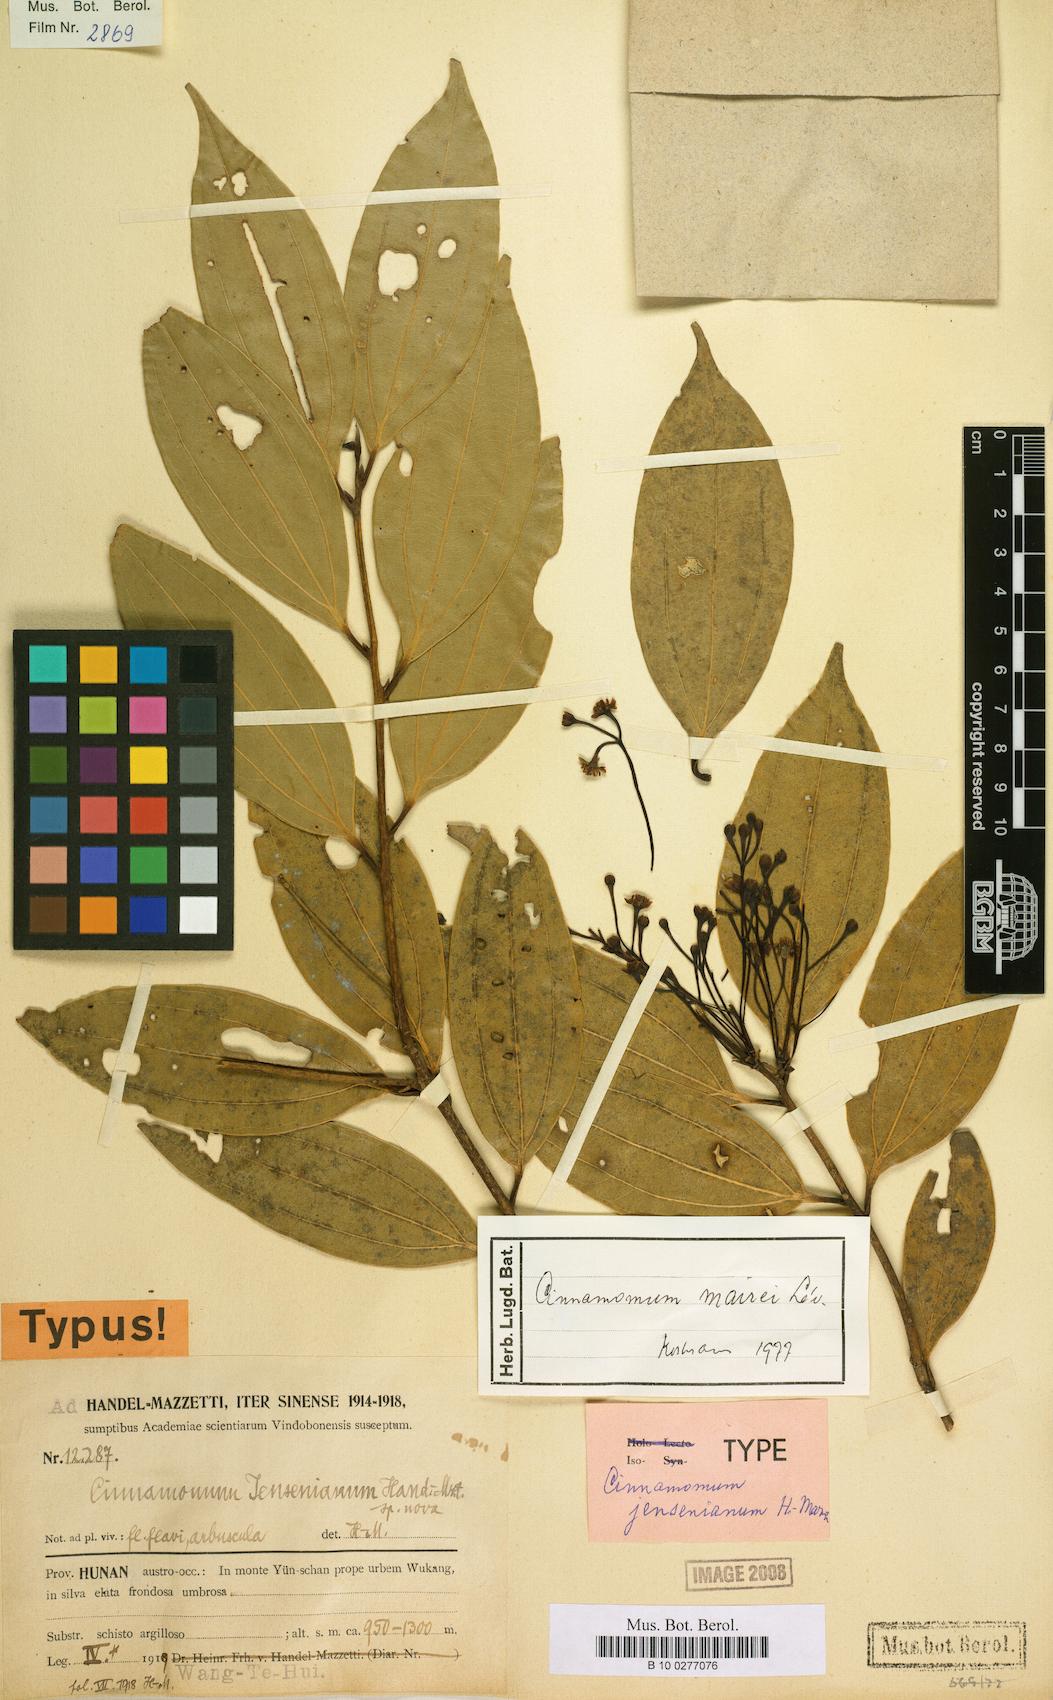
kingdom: Plantae
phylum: Tracheophyta
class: Magnoliopsida
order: Laurales
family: Lauraceae
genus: Cinnamomum
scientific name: Cinnamomum mairei
